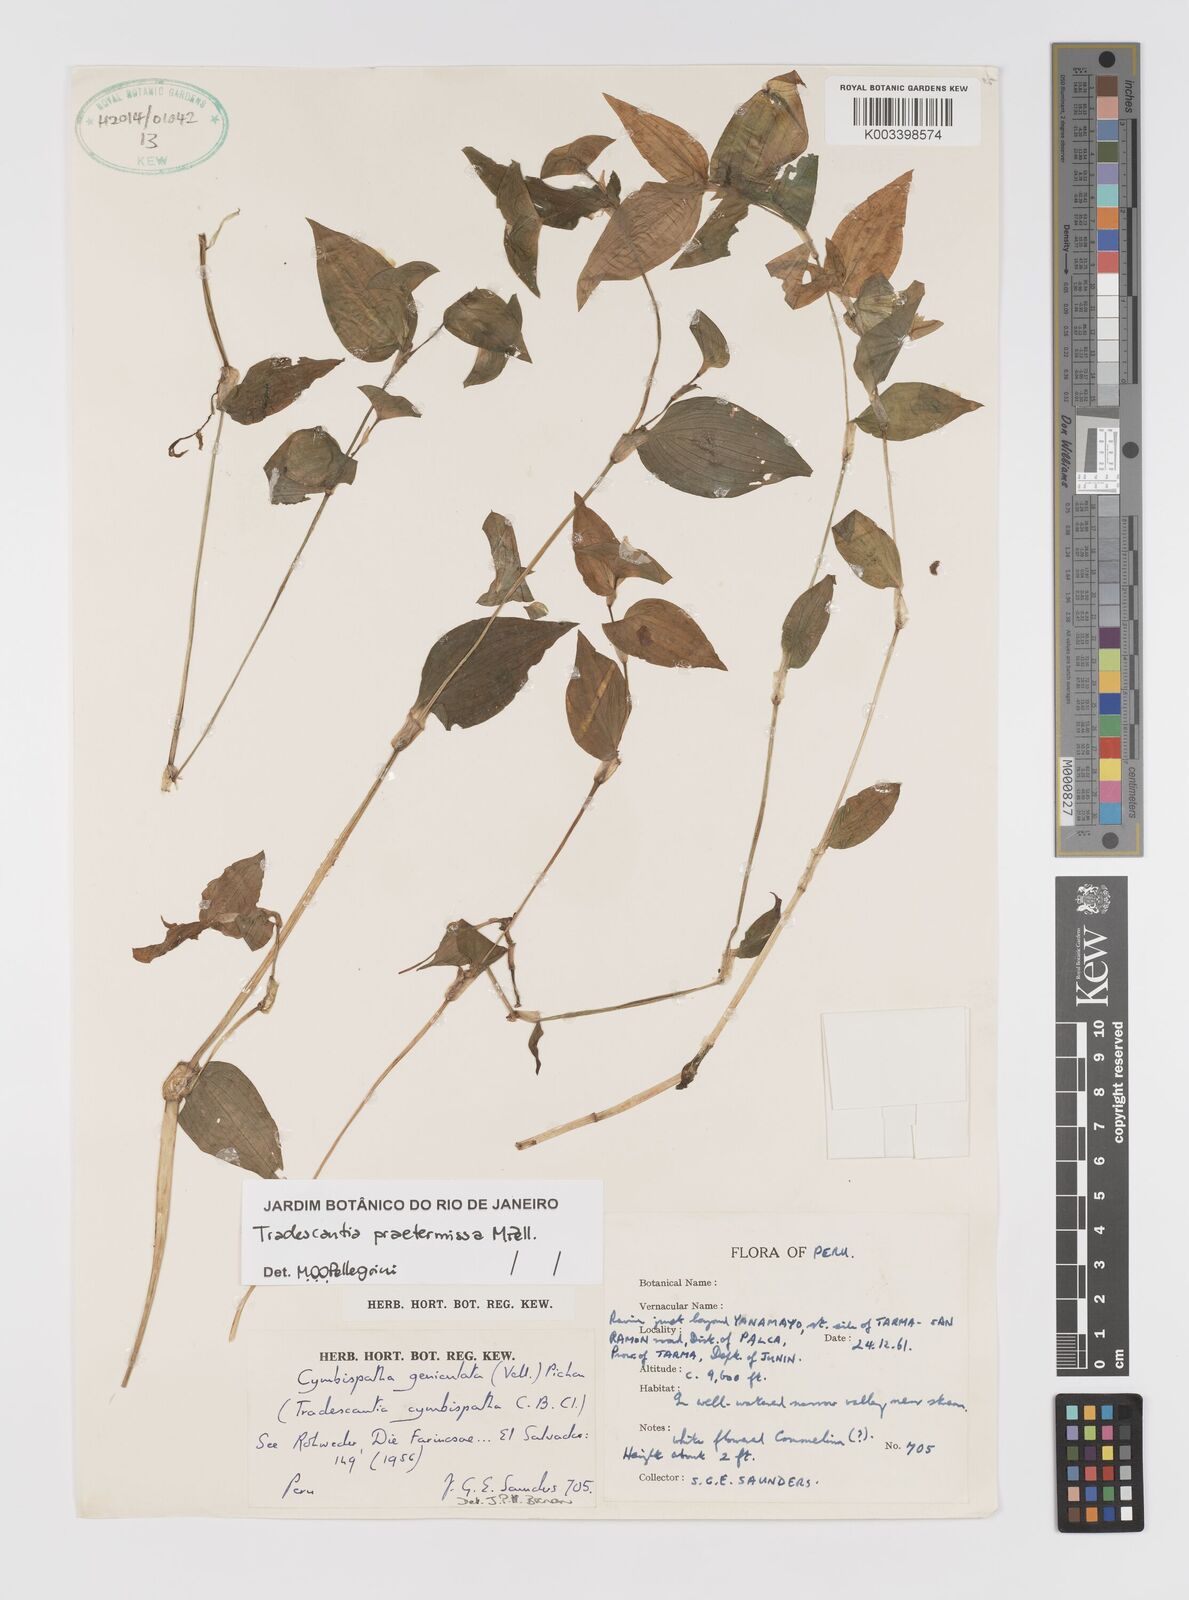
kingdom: Plantae
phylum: Tracheophyta
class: Liliopsida
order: Commelinales
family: Commelinaceae
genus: Tradescantia
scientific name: Tradescantia praetermissa
